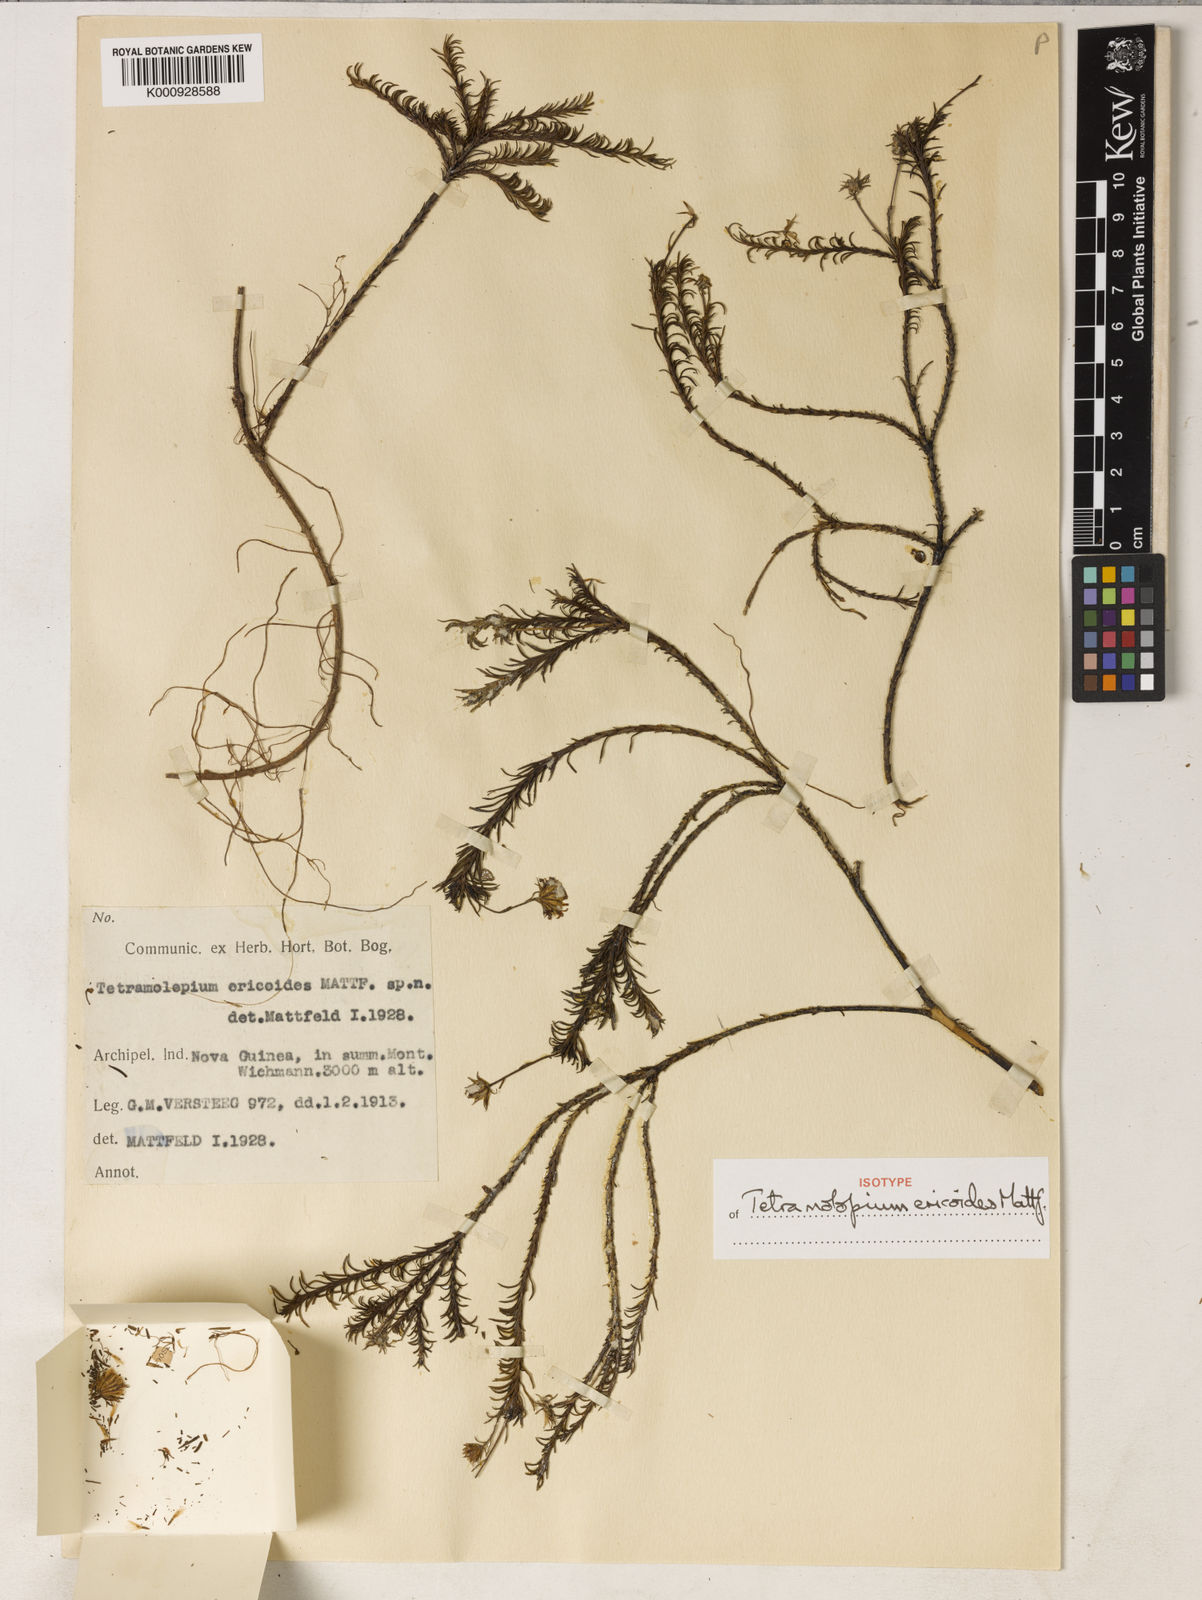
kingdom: Plantae
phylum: Tracheophyta
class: Magnoliopsida
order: Asterales
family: Asteraceae
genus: Tetramolopium
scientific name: Tetramolopium ericoides
